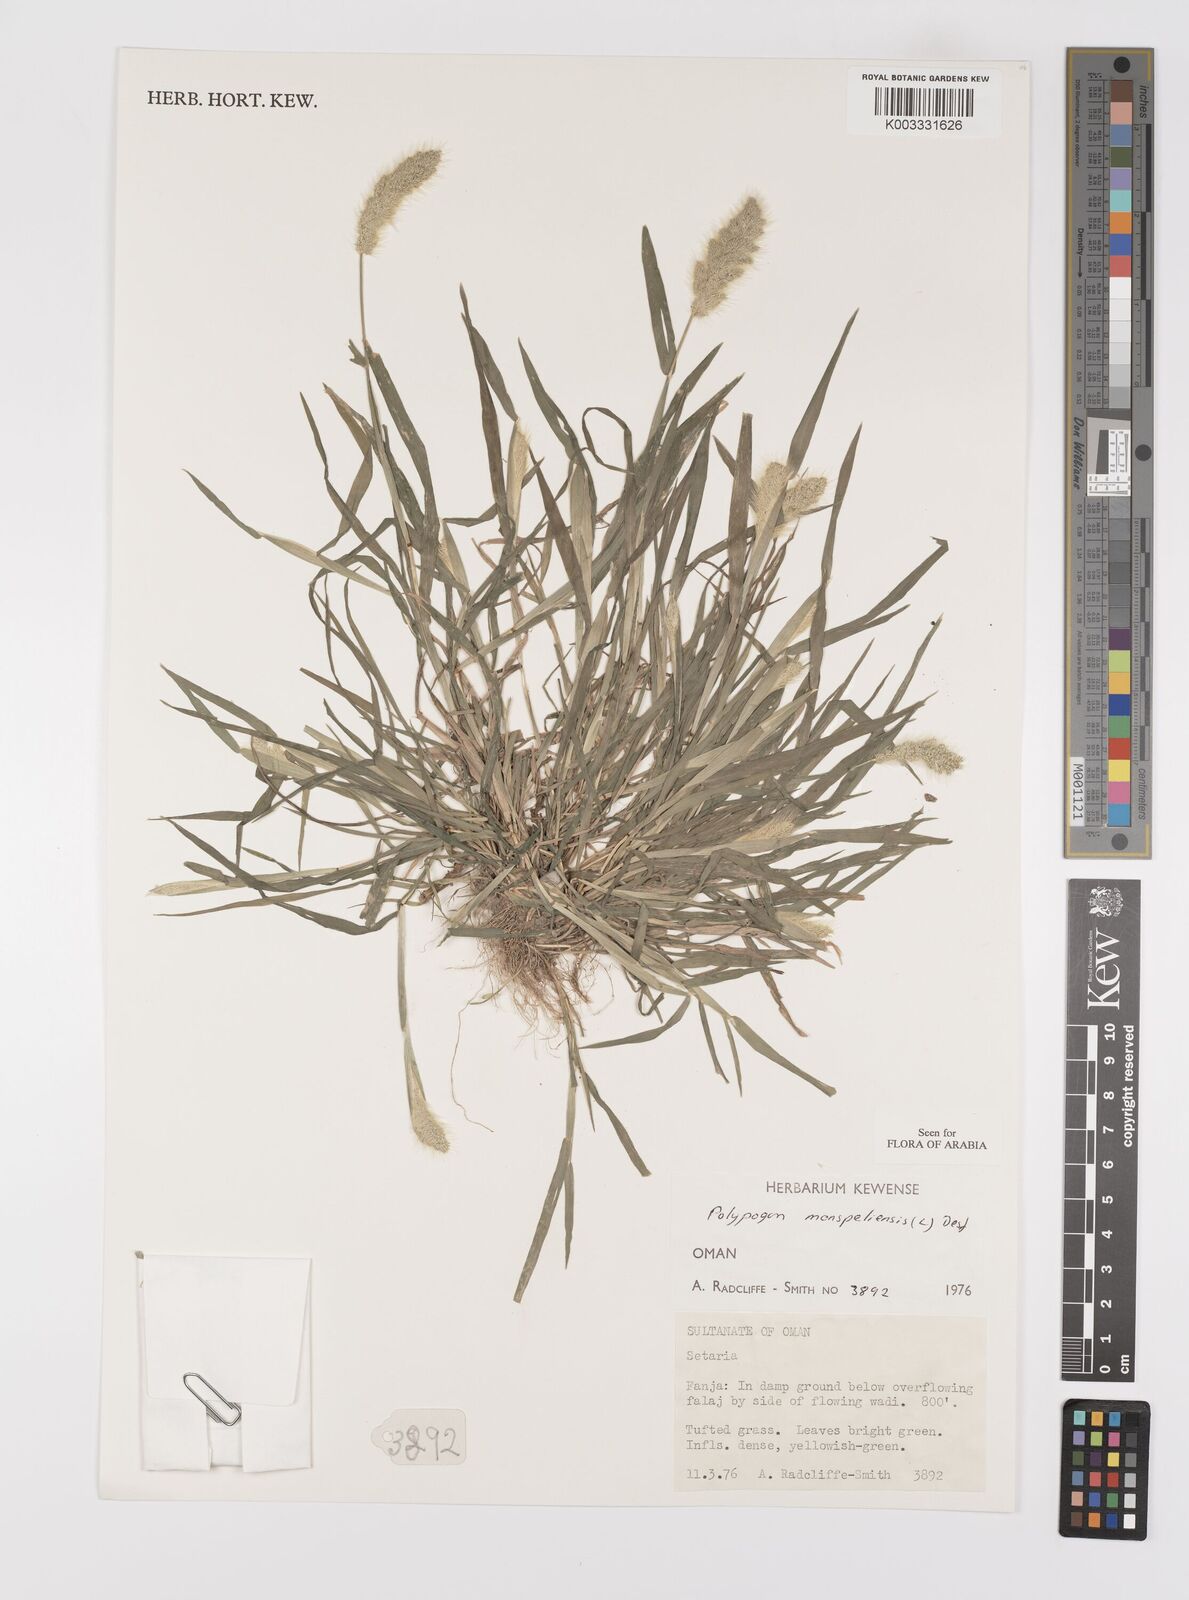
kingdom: Plantae
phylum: Tracheophyta
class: Liliopsida
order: Poales
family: Poaceae
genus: Polypogon
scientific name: Polypogon monspeliensis
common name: Annual rabbitsfoot grass
